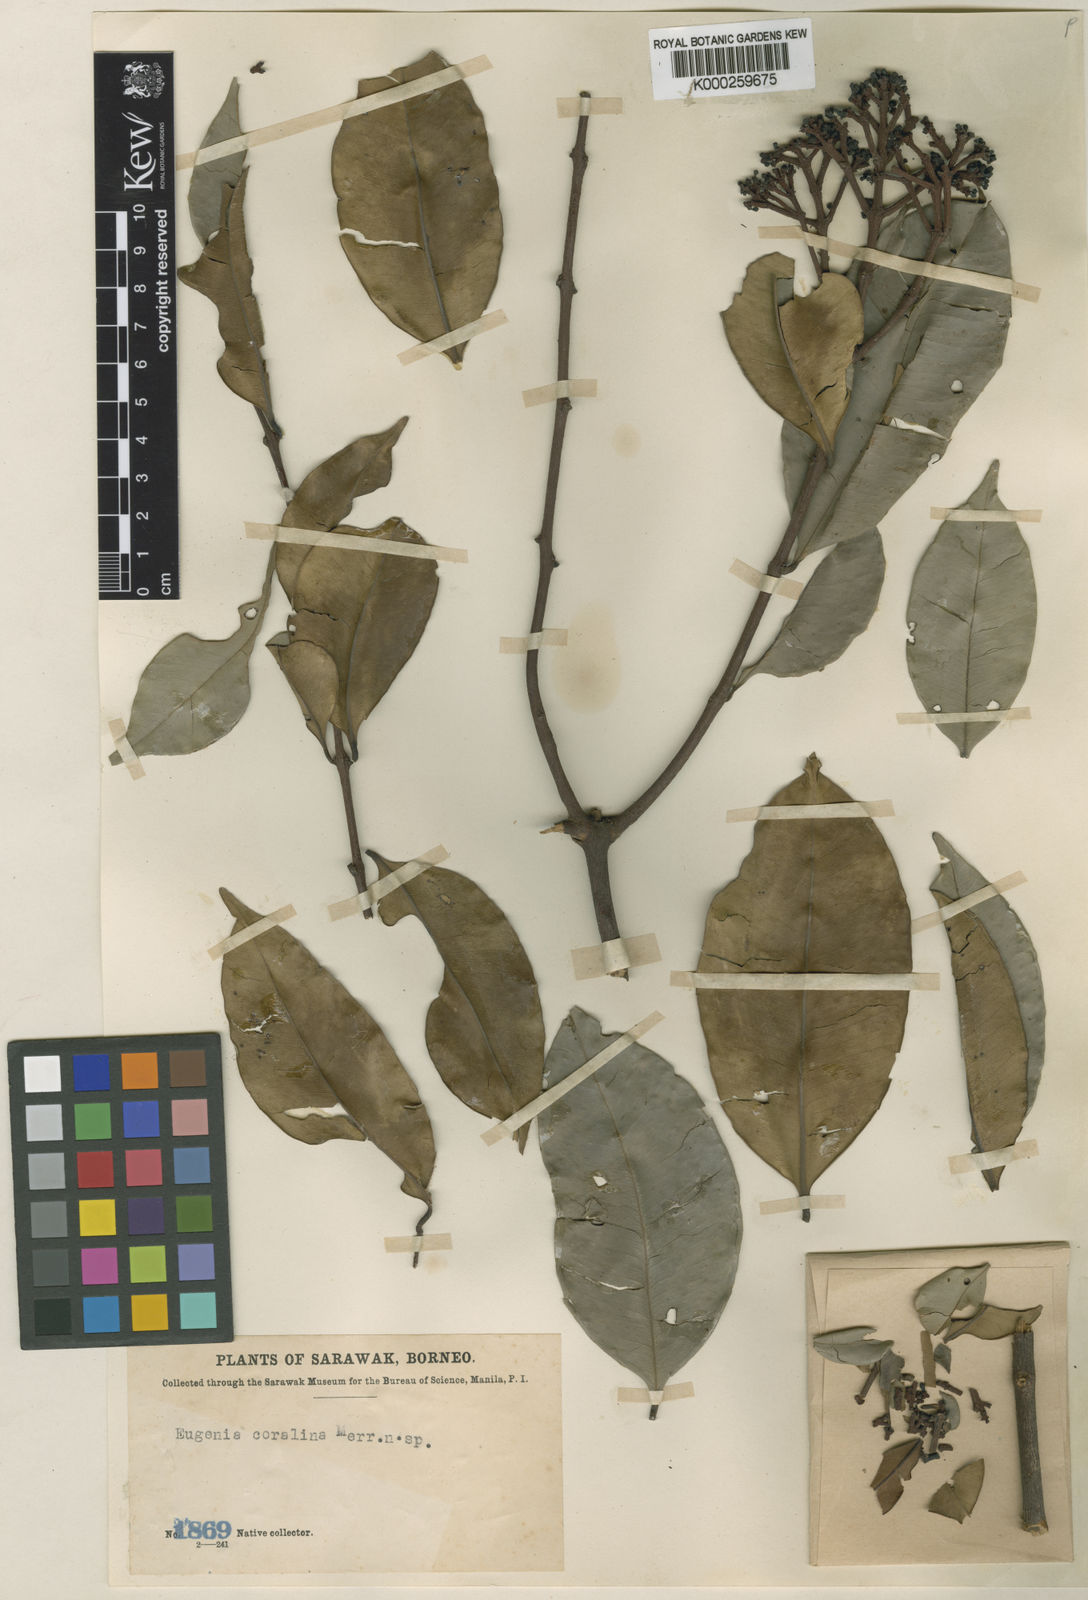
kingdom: Plantae
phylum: Tracheophyta
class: Magnoliopsida
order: Myrtales
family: Myrtaceae
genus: Syzygium
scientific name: Syzygium curtisii
